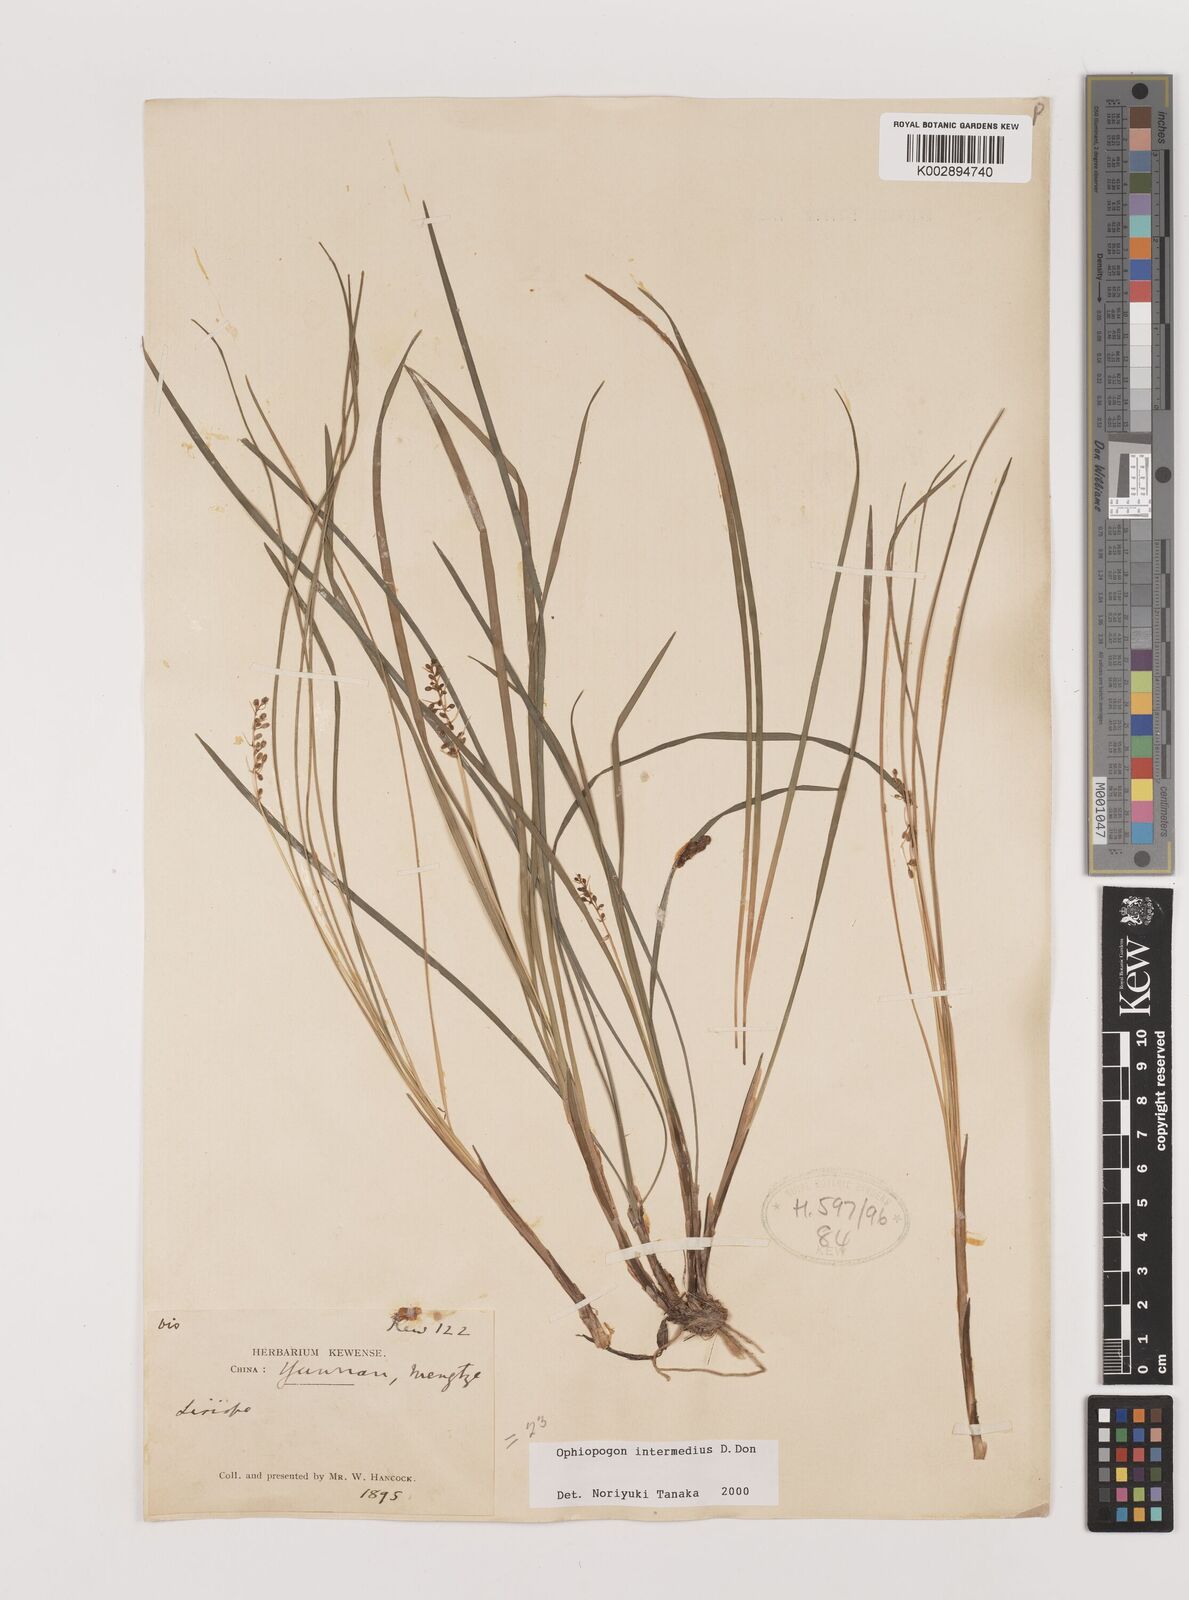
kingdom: Plantae
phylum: Tracheophyta
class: Liliopsida
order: Asparagales
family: Asparagaceae
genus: Ophiopogon
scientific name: Ophiopogon intermedius
